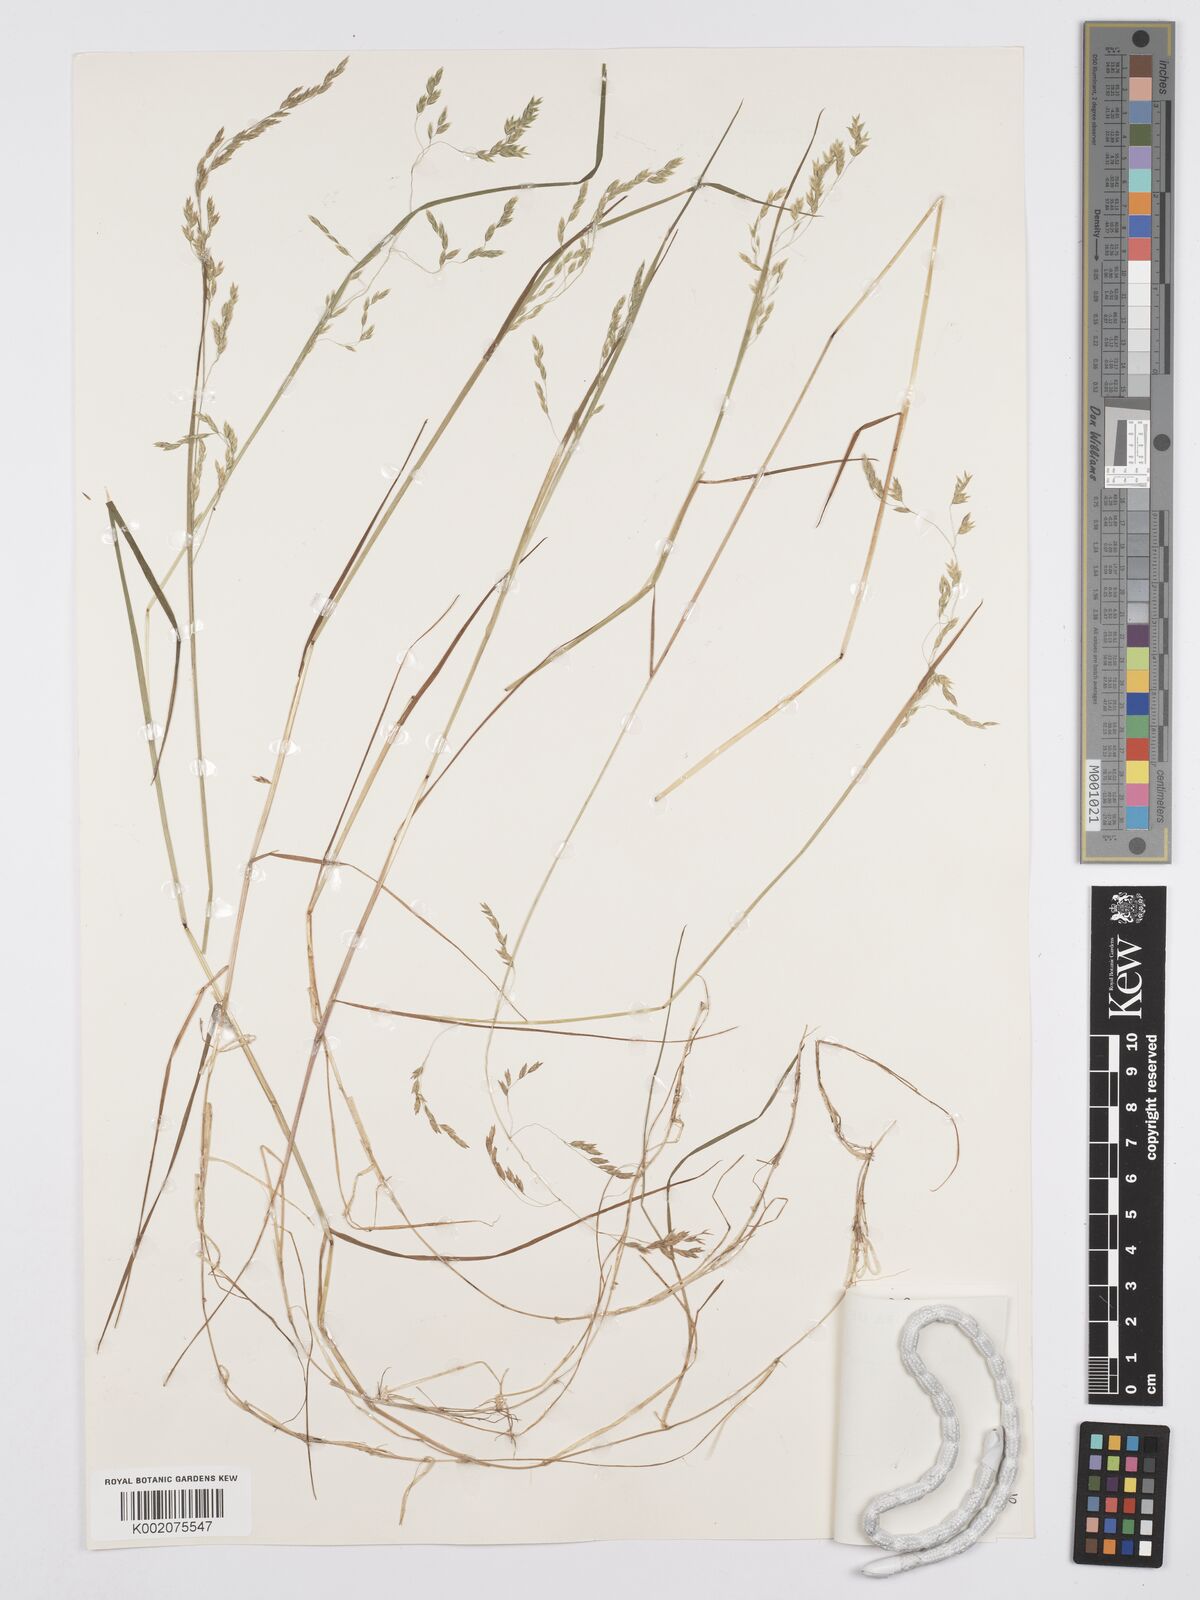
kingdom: Plantae
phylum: Tracheophyta
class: Liliopsida
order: Poales
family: Poaceae
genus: Poa
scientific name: Poa schimperiana
